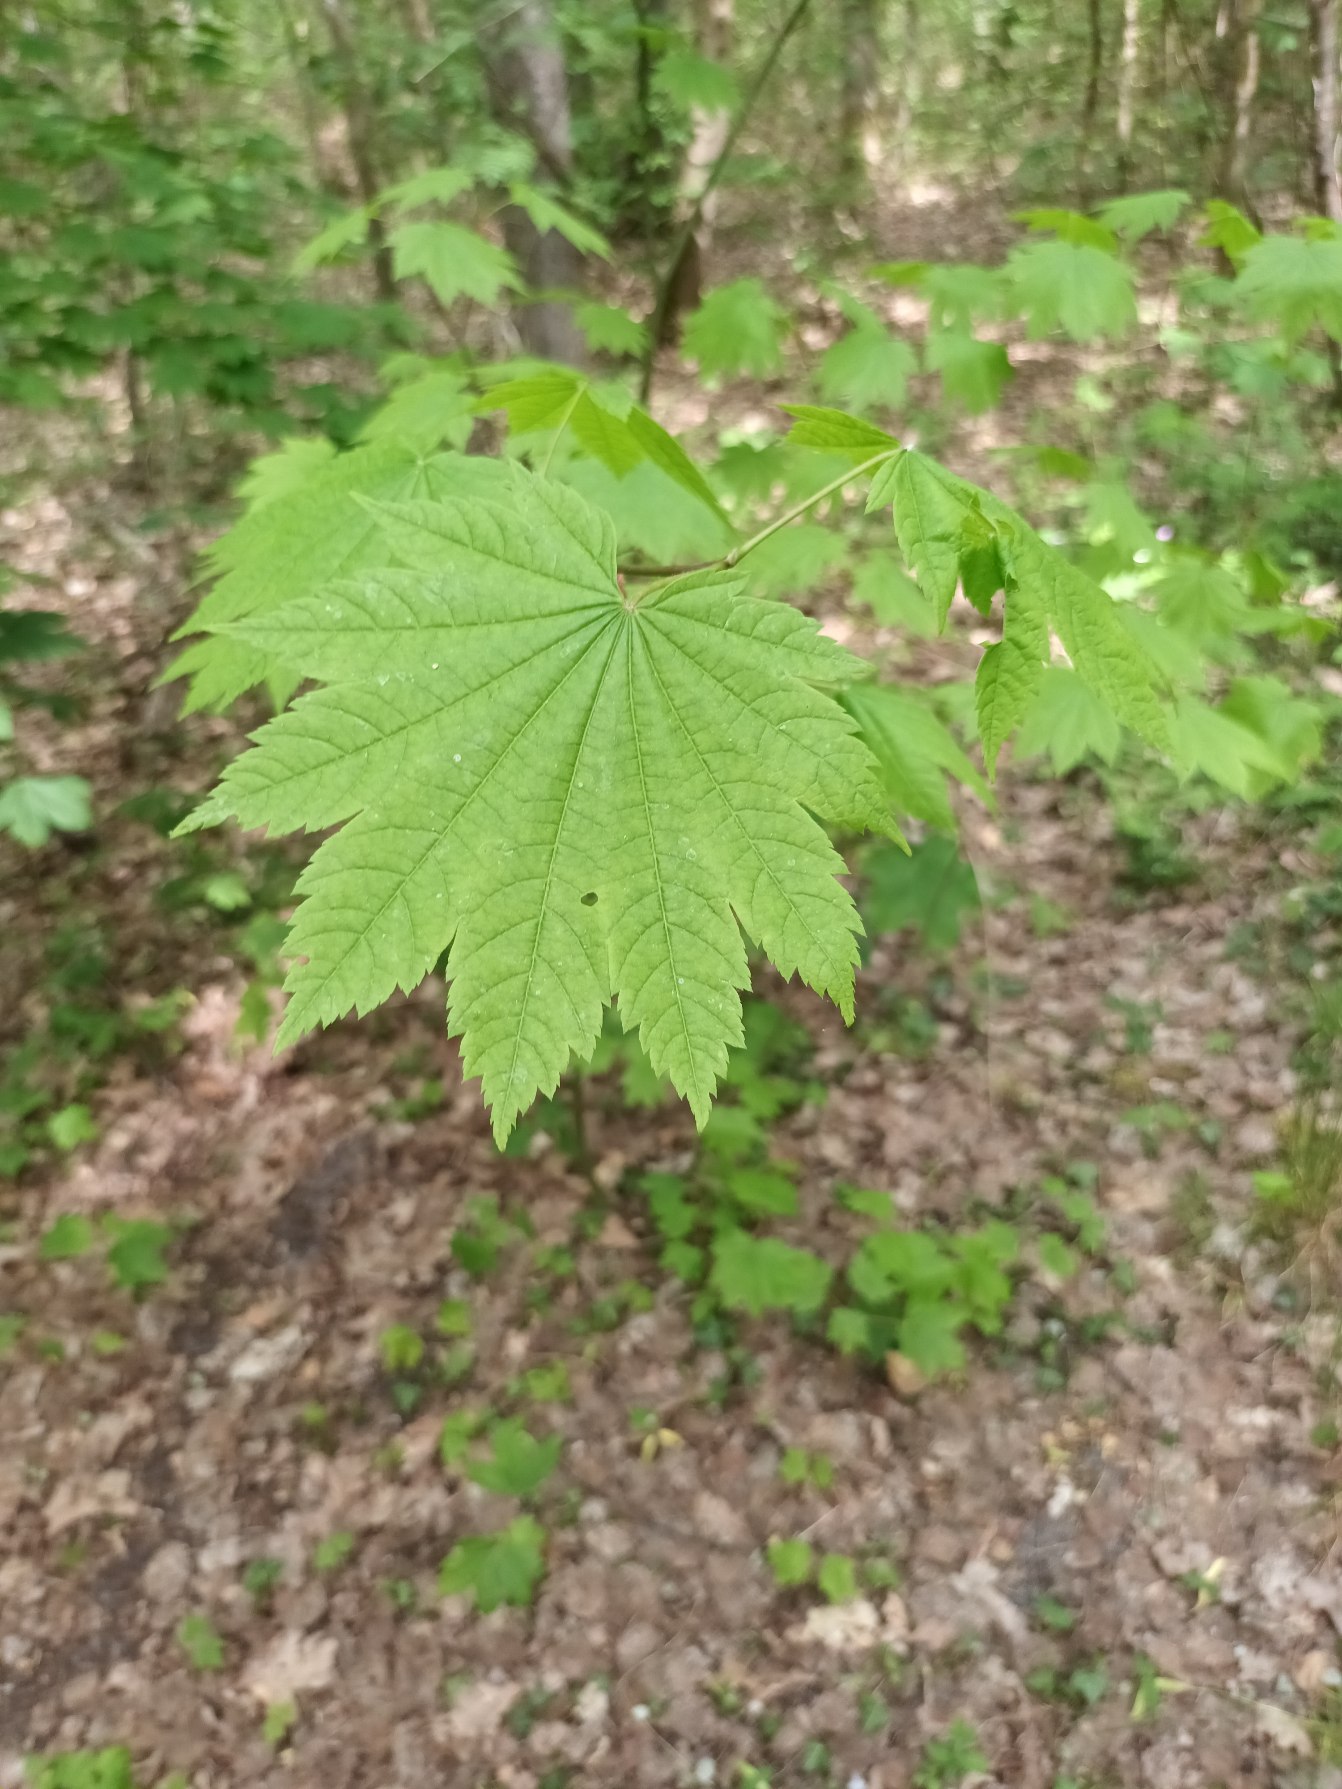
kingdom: Plantae
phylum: Tracheophyta
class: Magnoliopsida
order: Sapindales
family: Sapindaceae
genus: Acer
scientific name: Acer circinatum
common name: Vin-løn
